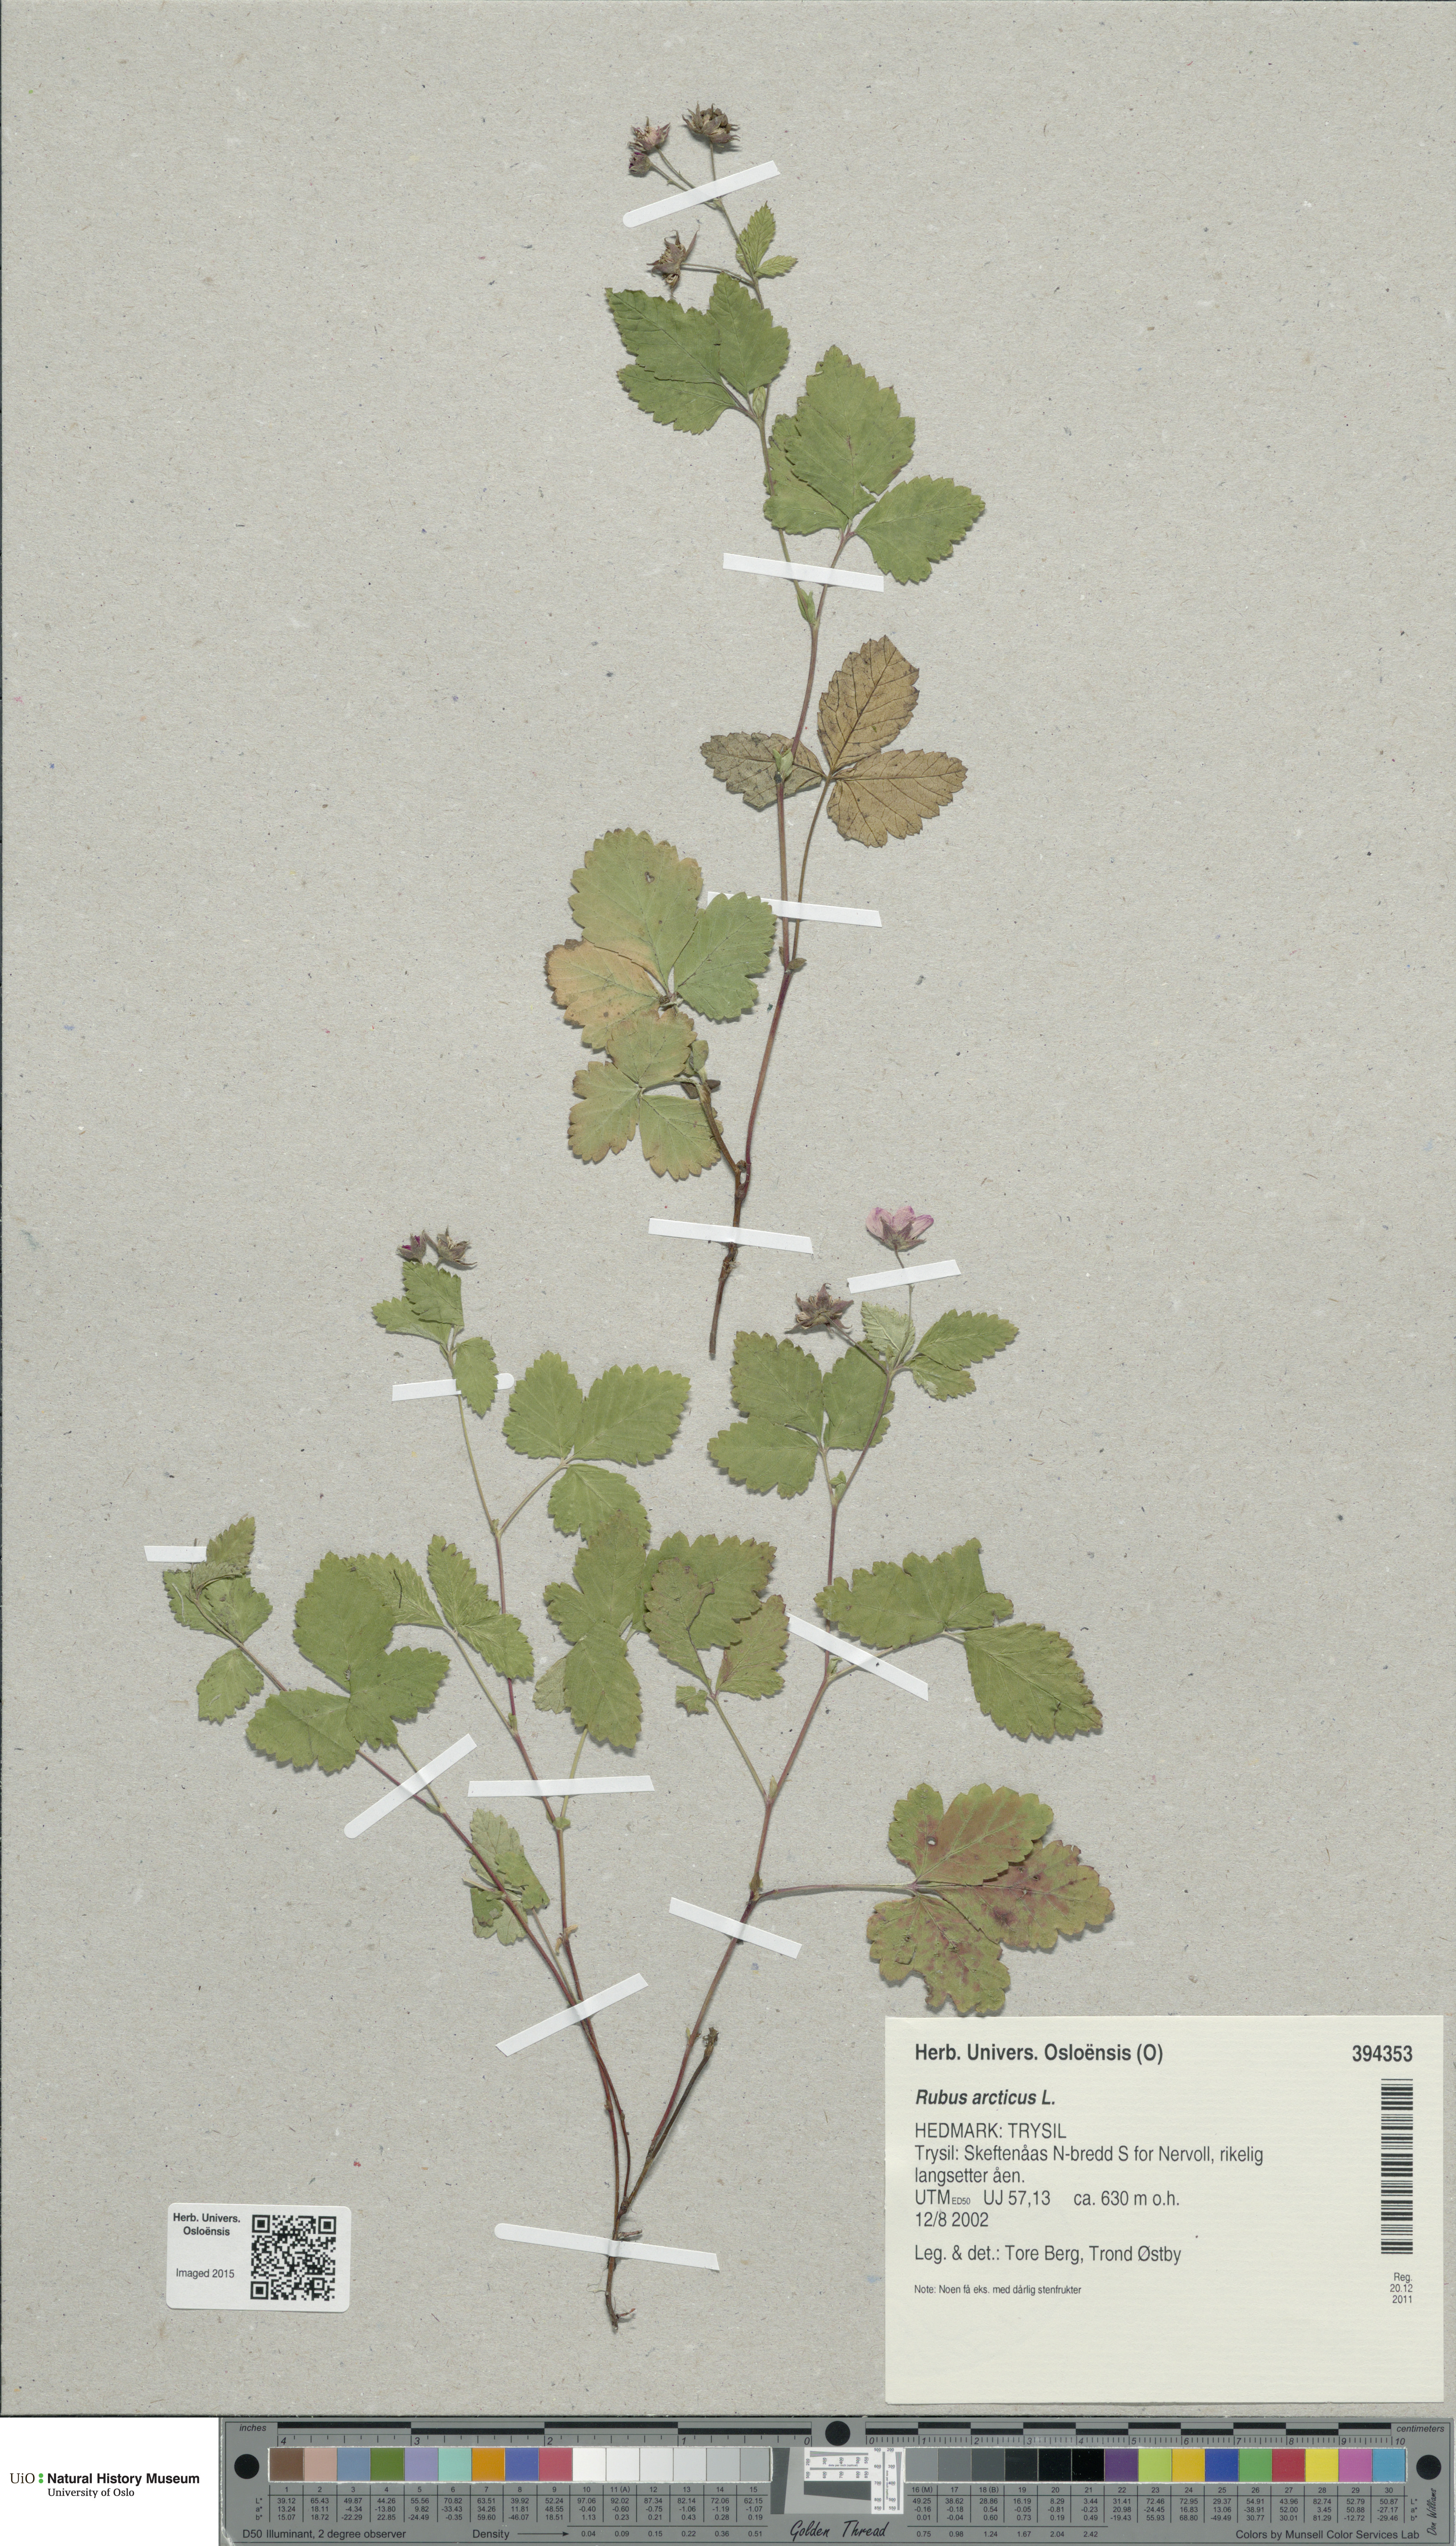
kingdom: Plantae
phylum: Tracheophyta
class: Magnoliopsida
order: Rosales
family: Rosaceae
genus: Rubus
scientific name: Rubus arcticus
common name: Arctic bramble
